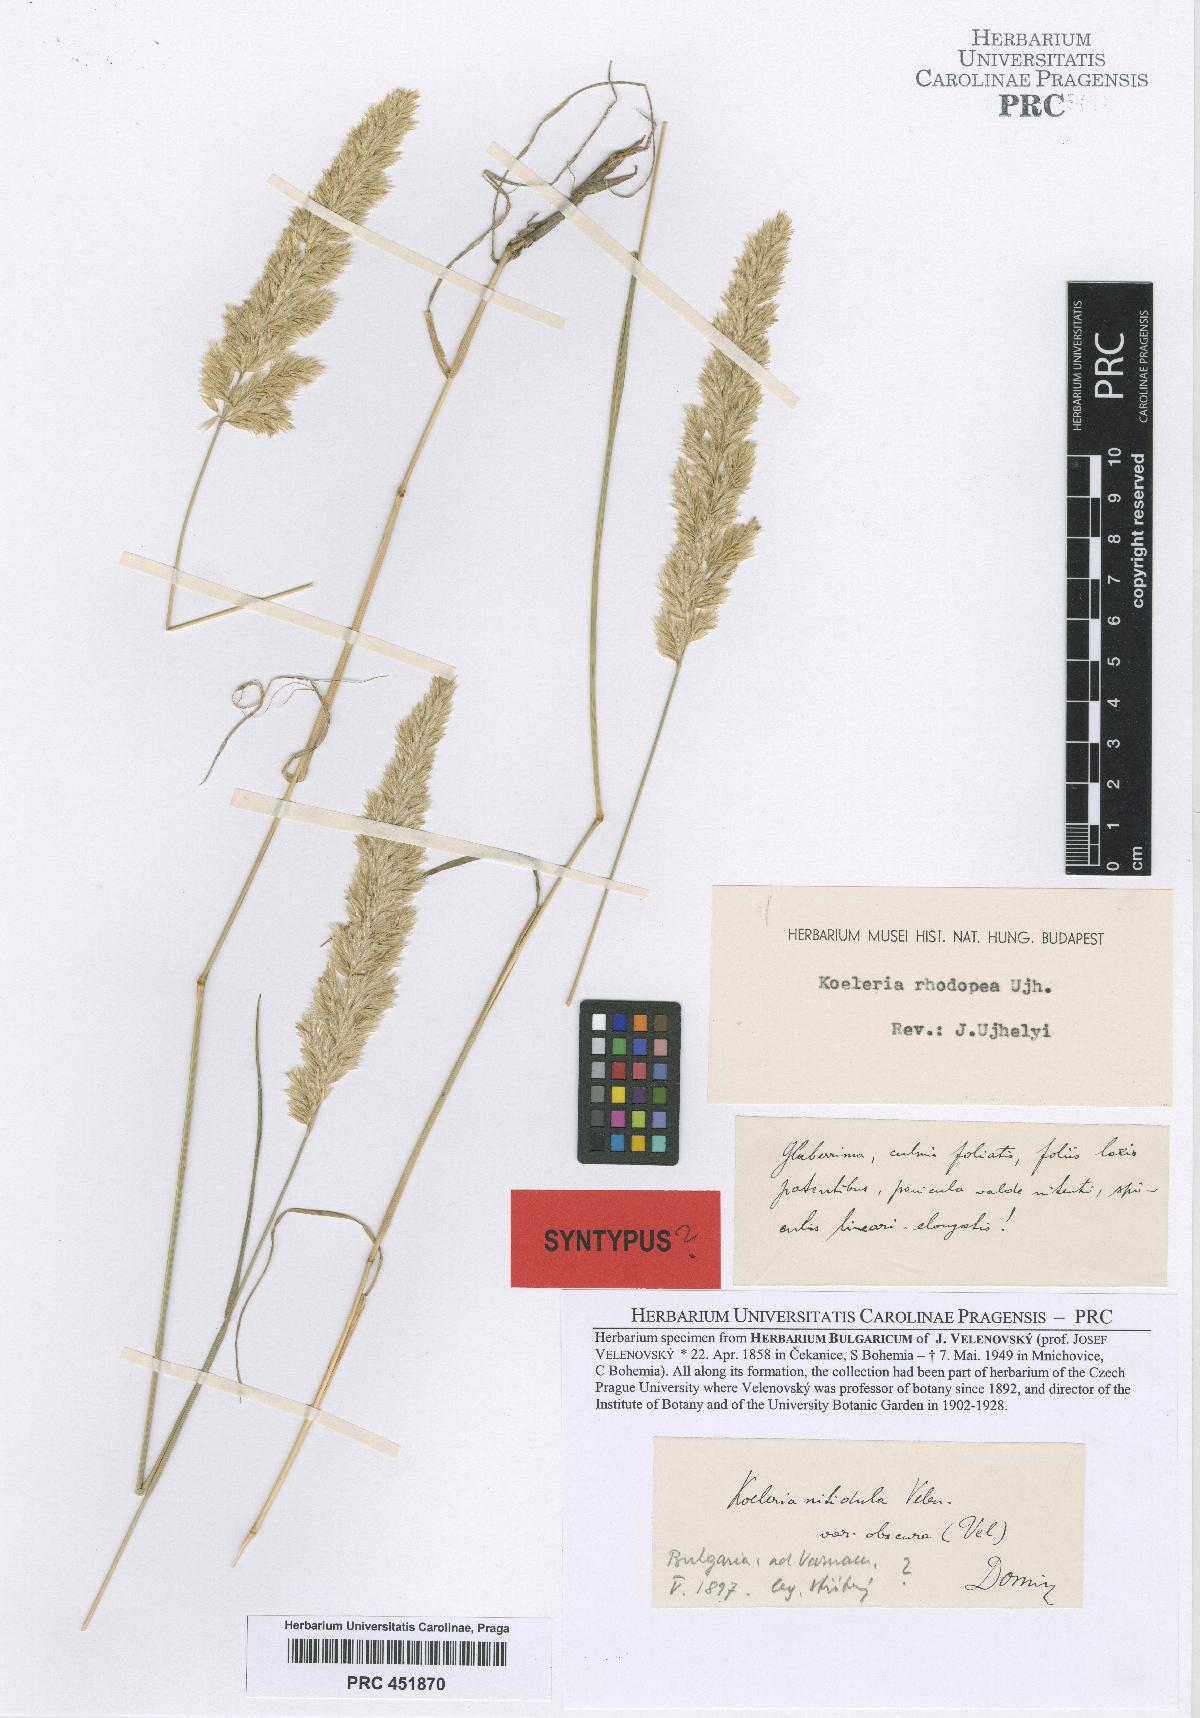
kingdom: Plantae
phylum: Tracheophyta
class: Liliopsida
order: Poales
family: Poaceae
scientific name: Poaceae
